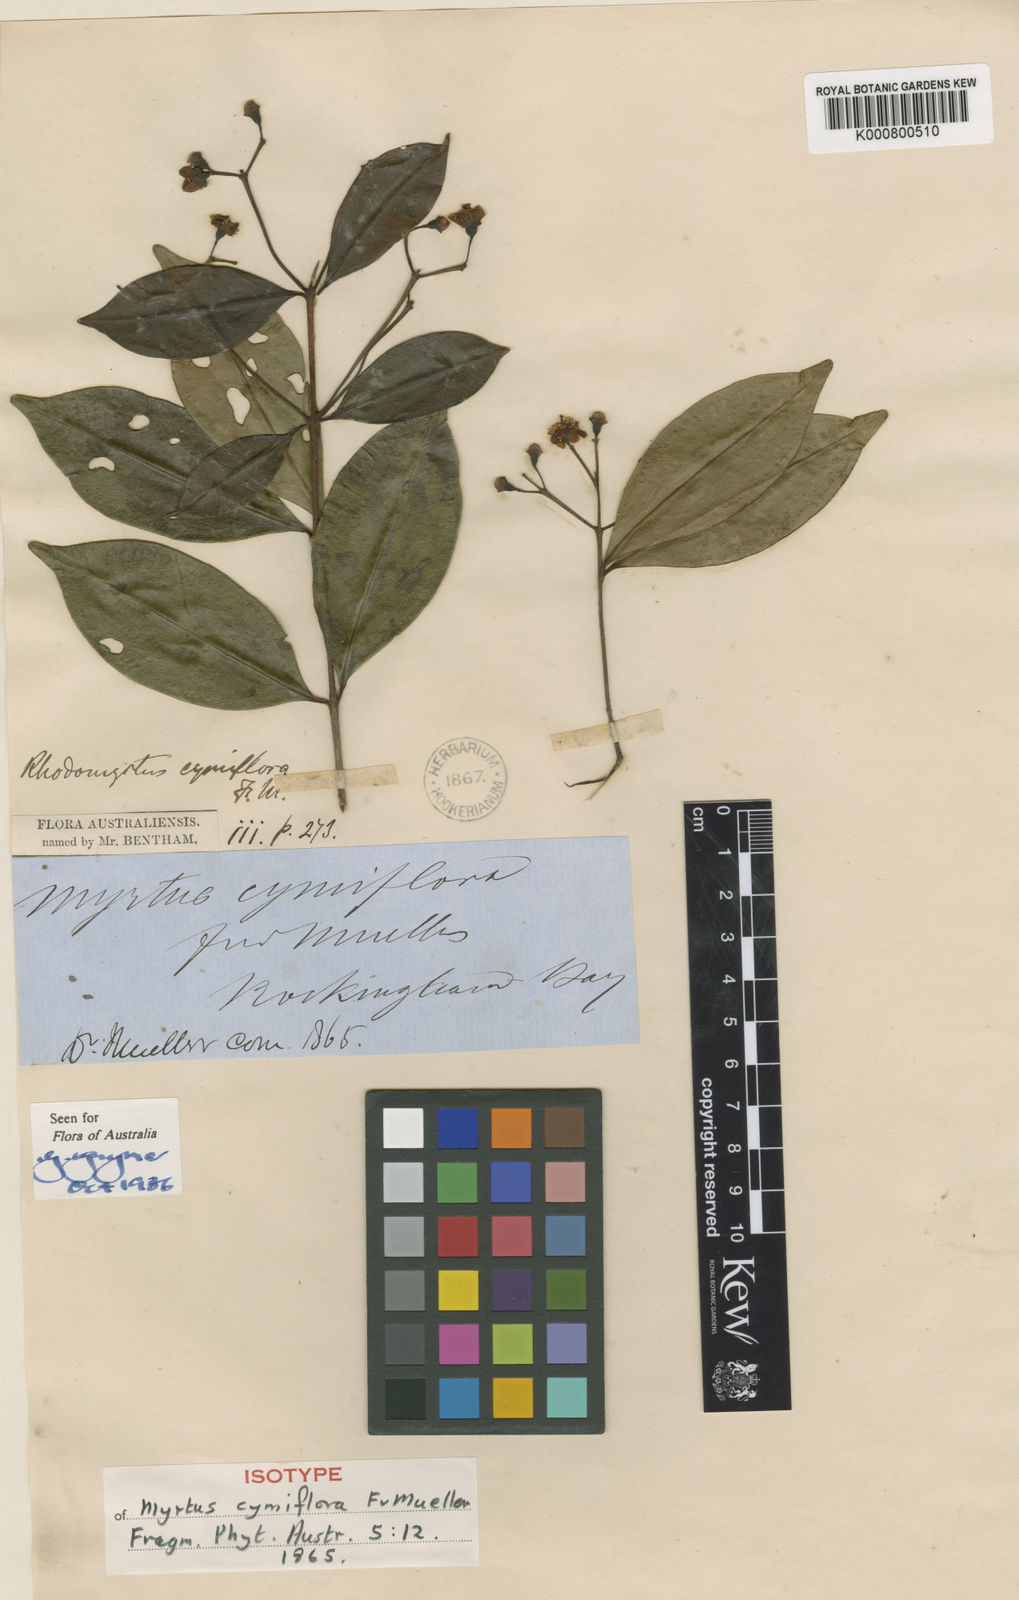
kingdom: Plantae
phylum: Tracheophyta
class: Magnoliopsida
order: Myrtales
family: Myrtaceae
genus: Archirhodomyrtus
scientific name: Archirhodomyrtus
